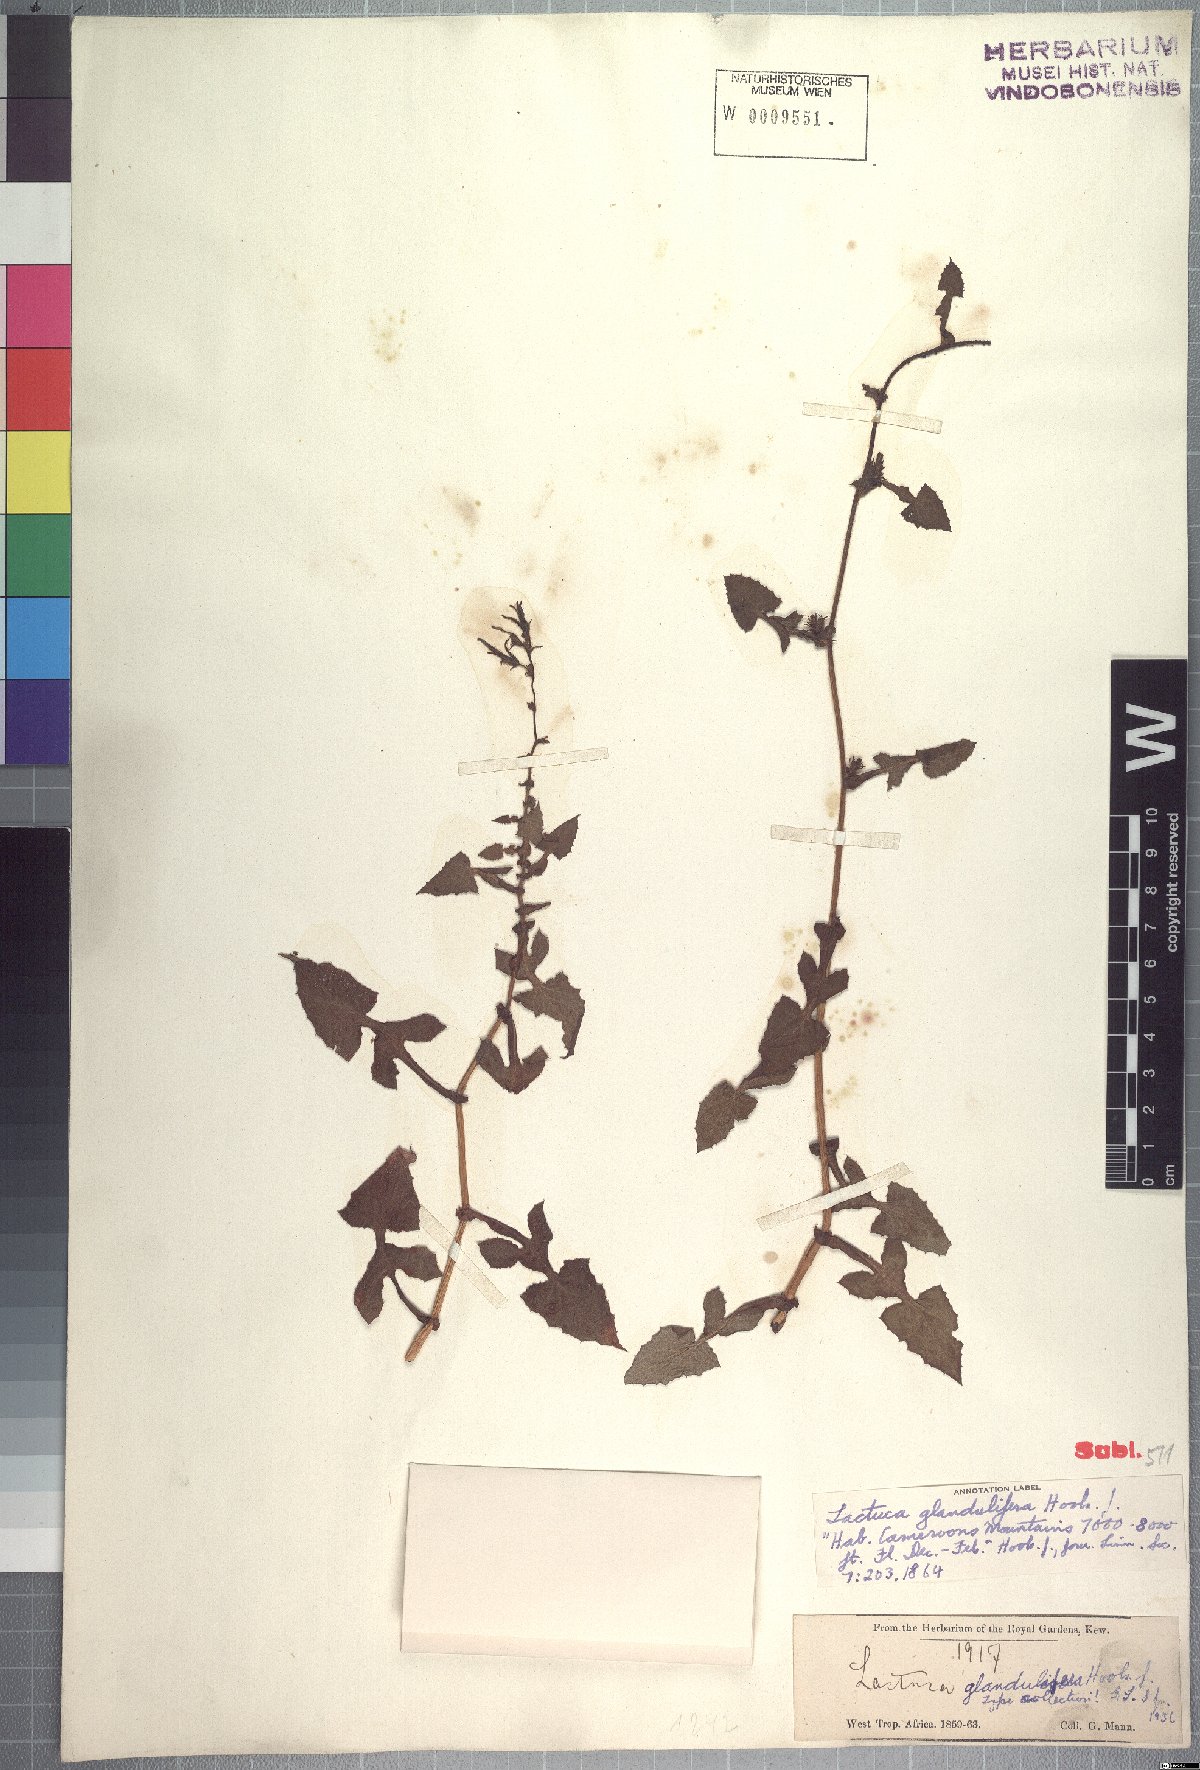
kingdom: Plantae
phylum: Tracheophyta
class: Magnoliopsida
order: Asterales
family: Asteraceae
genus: Lactuca
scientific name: Lactuca glandulifera
